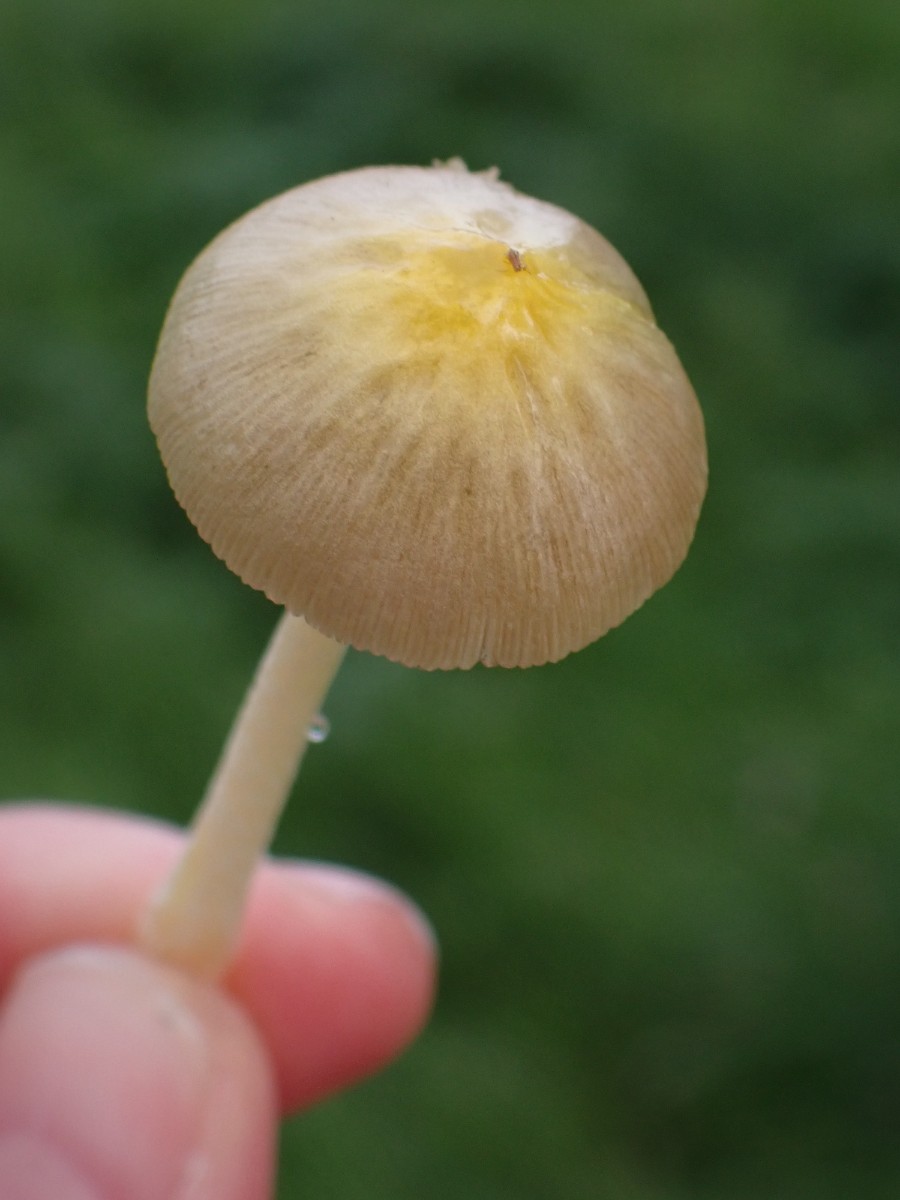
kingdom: Fungi
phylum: Basidiomycota
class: Agaricomycetes
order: Agaricales
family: Bolbitiaceae
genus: Bolbitius
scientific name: Bolbitius titubans
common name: almindelig gulhat
